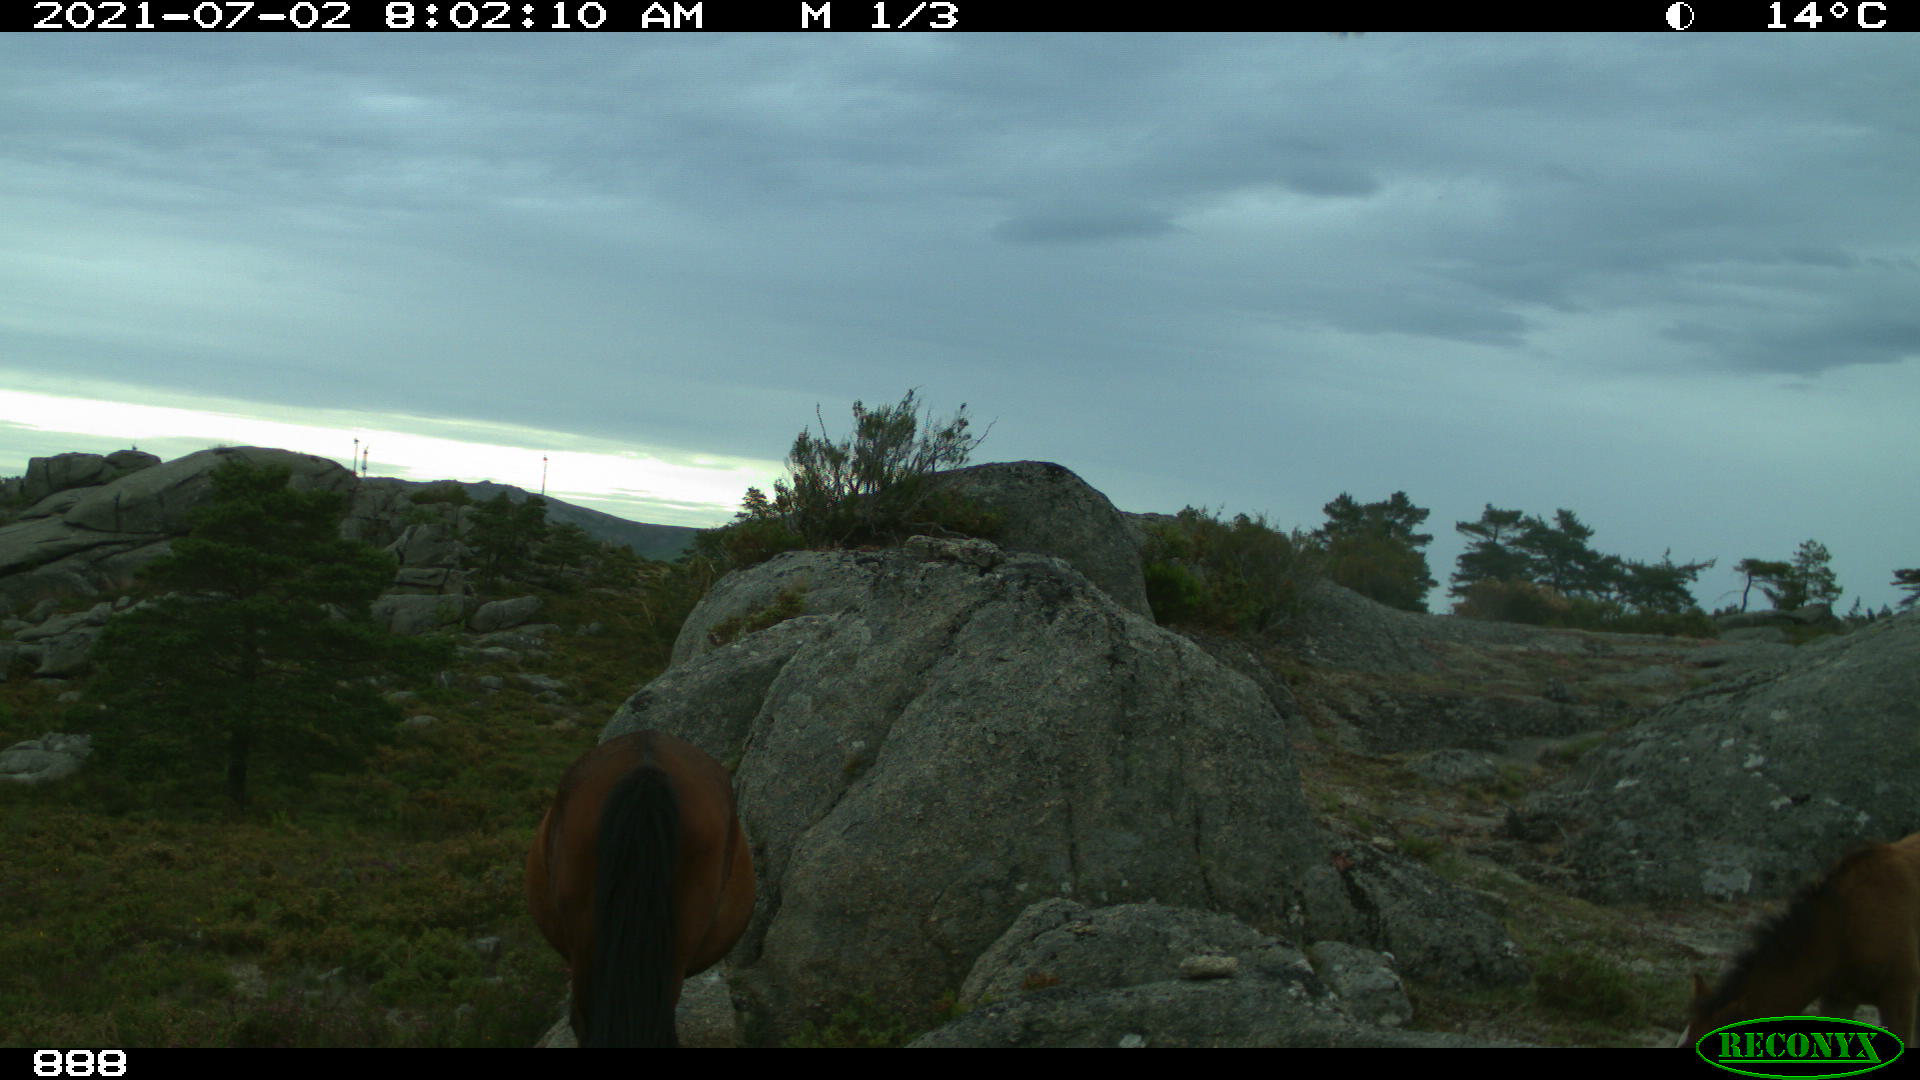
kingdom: Animalia
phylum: Chordata
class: Mammalia
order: Perissodactyla
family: Equidae
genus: Equus
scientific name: Equus caballus
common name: Horse
